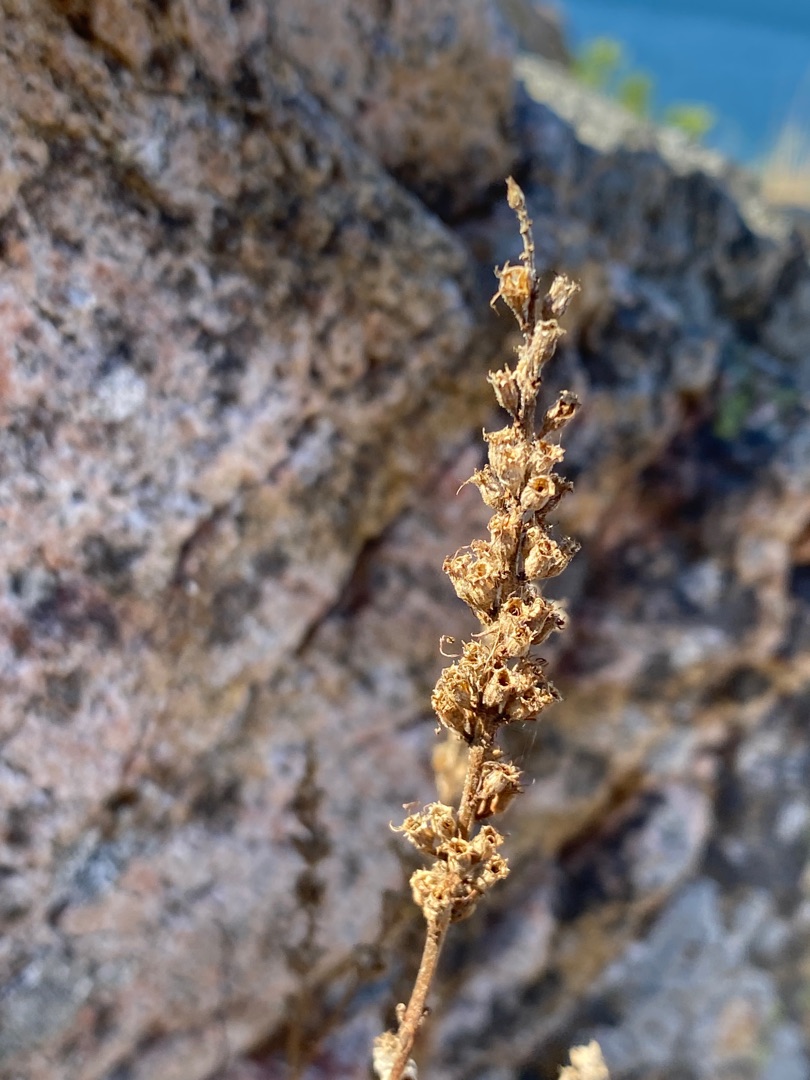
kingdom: Plantae
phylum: Tracheophyta
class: Magnoliopsida
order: Lamiales
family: Plantaginaceae
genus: Plantago
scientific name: Plantago maritima
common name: Strand-vejbred
